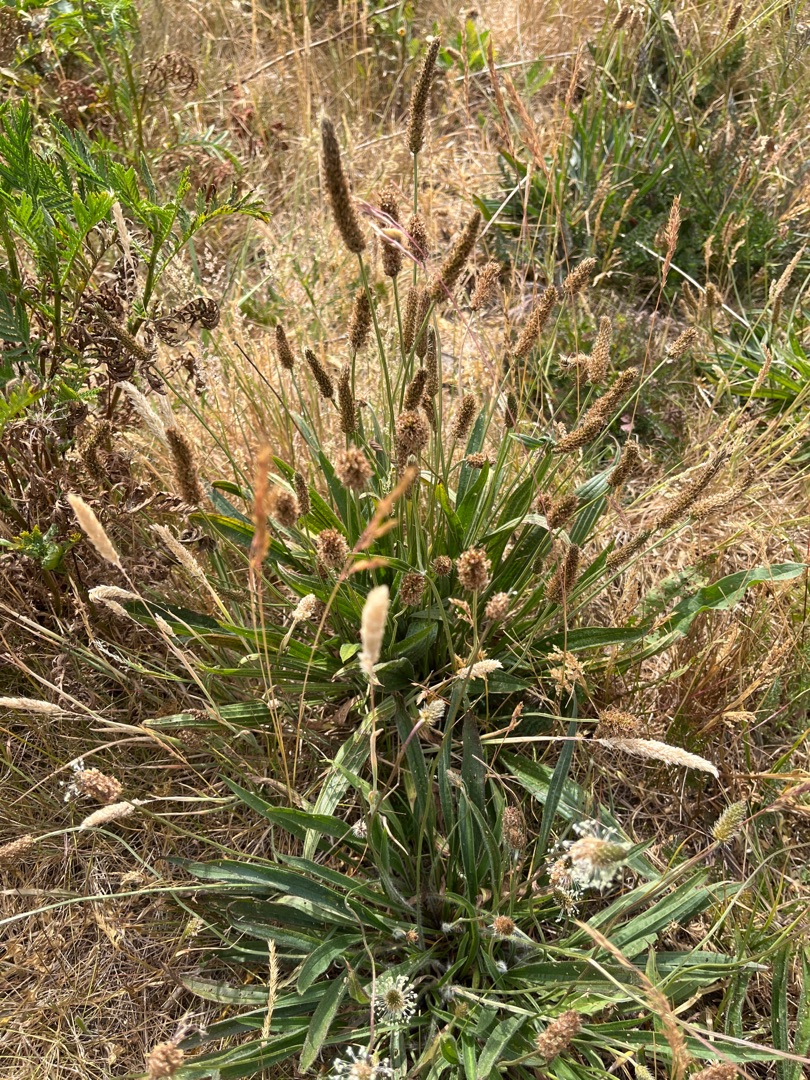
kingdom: Plantae
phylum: Tracheophyta
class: Magnoliopsida
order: Lamiales
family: Plantaginaceae
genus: Plantago
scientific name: Plantago lanceolata
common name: Lancet-vejbred
